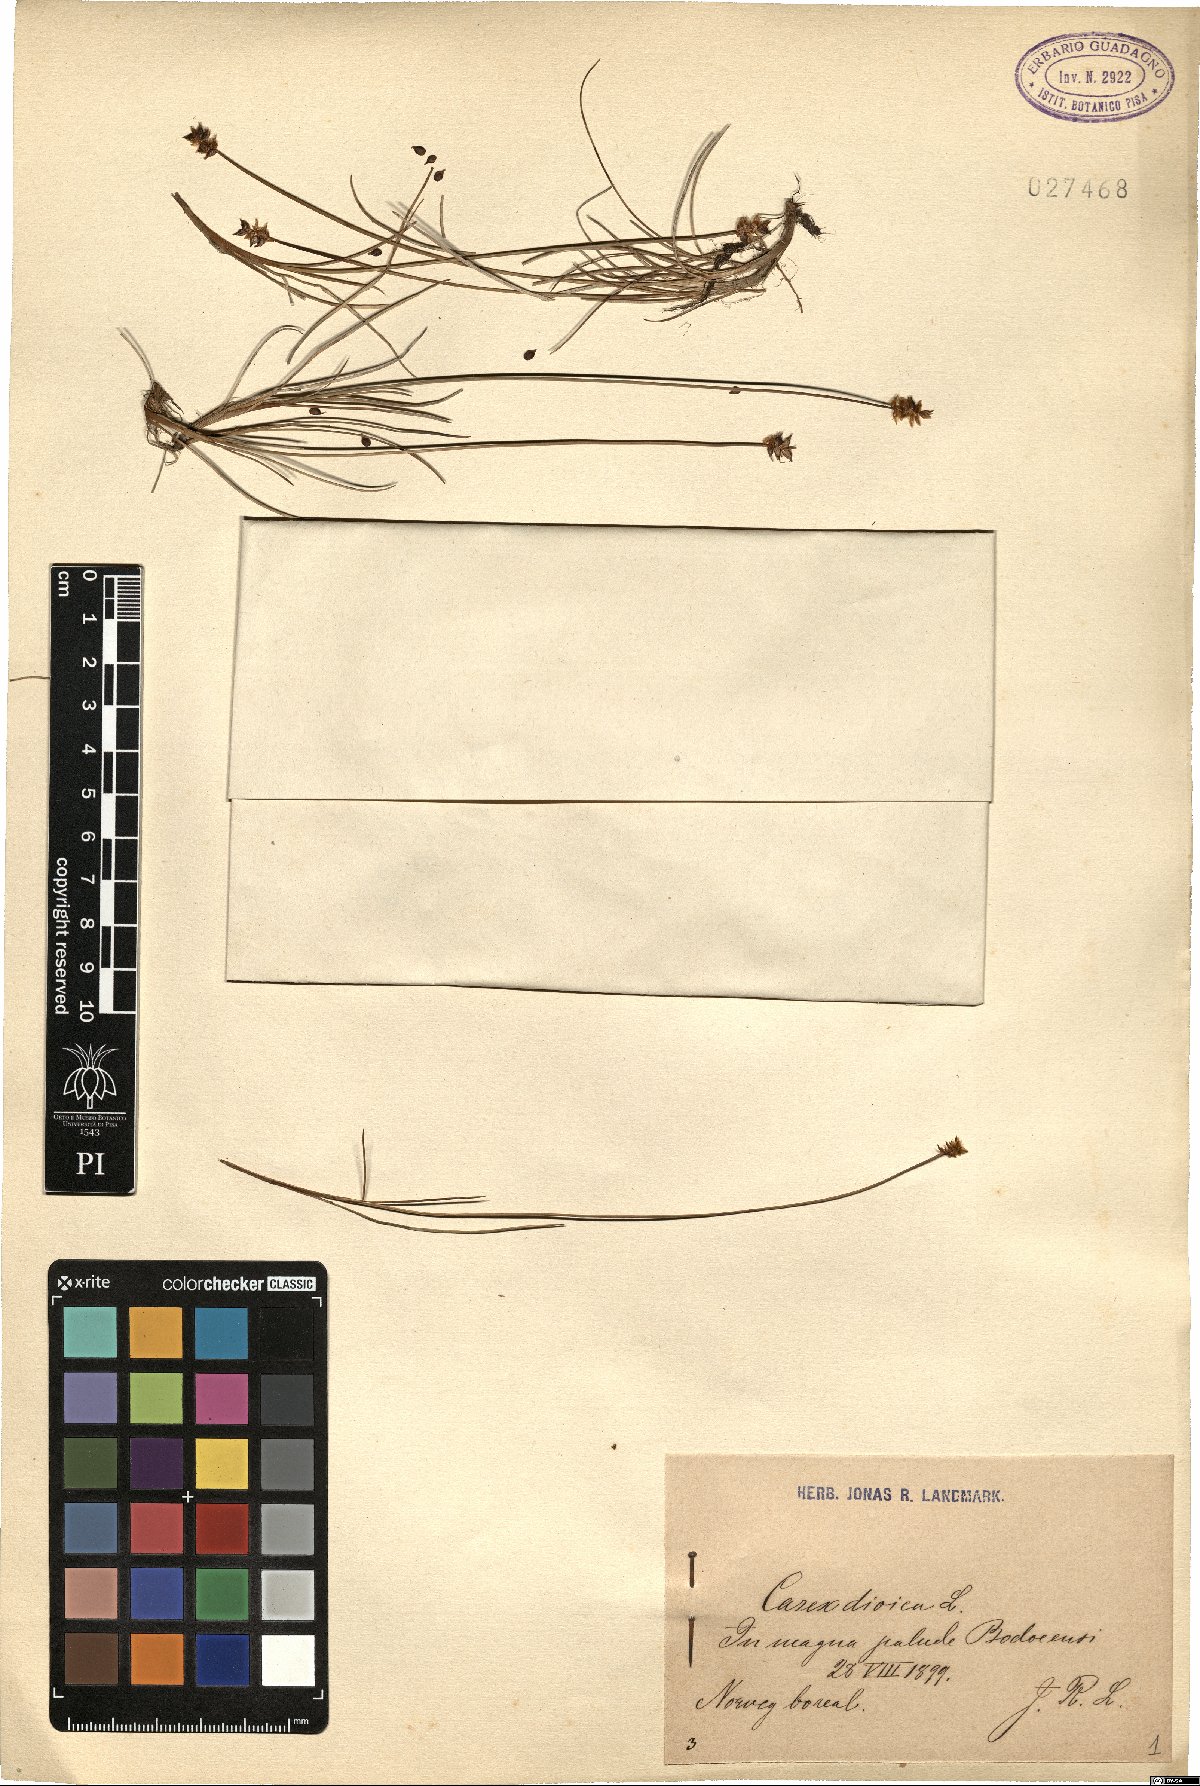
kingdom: Plantae
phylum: Tracheophyta
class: Liliopsida
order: Poales
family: Cyperaceae
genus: Carex
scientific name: Carex dioica
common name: Dioecious sedge
